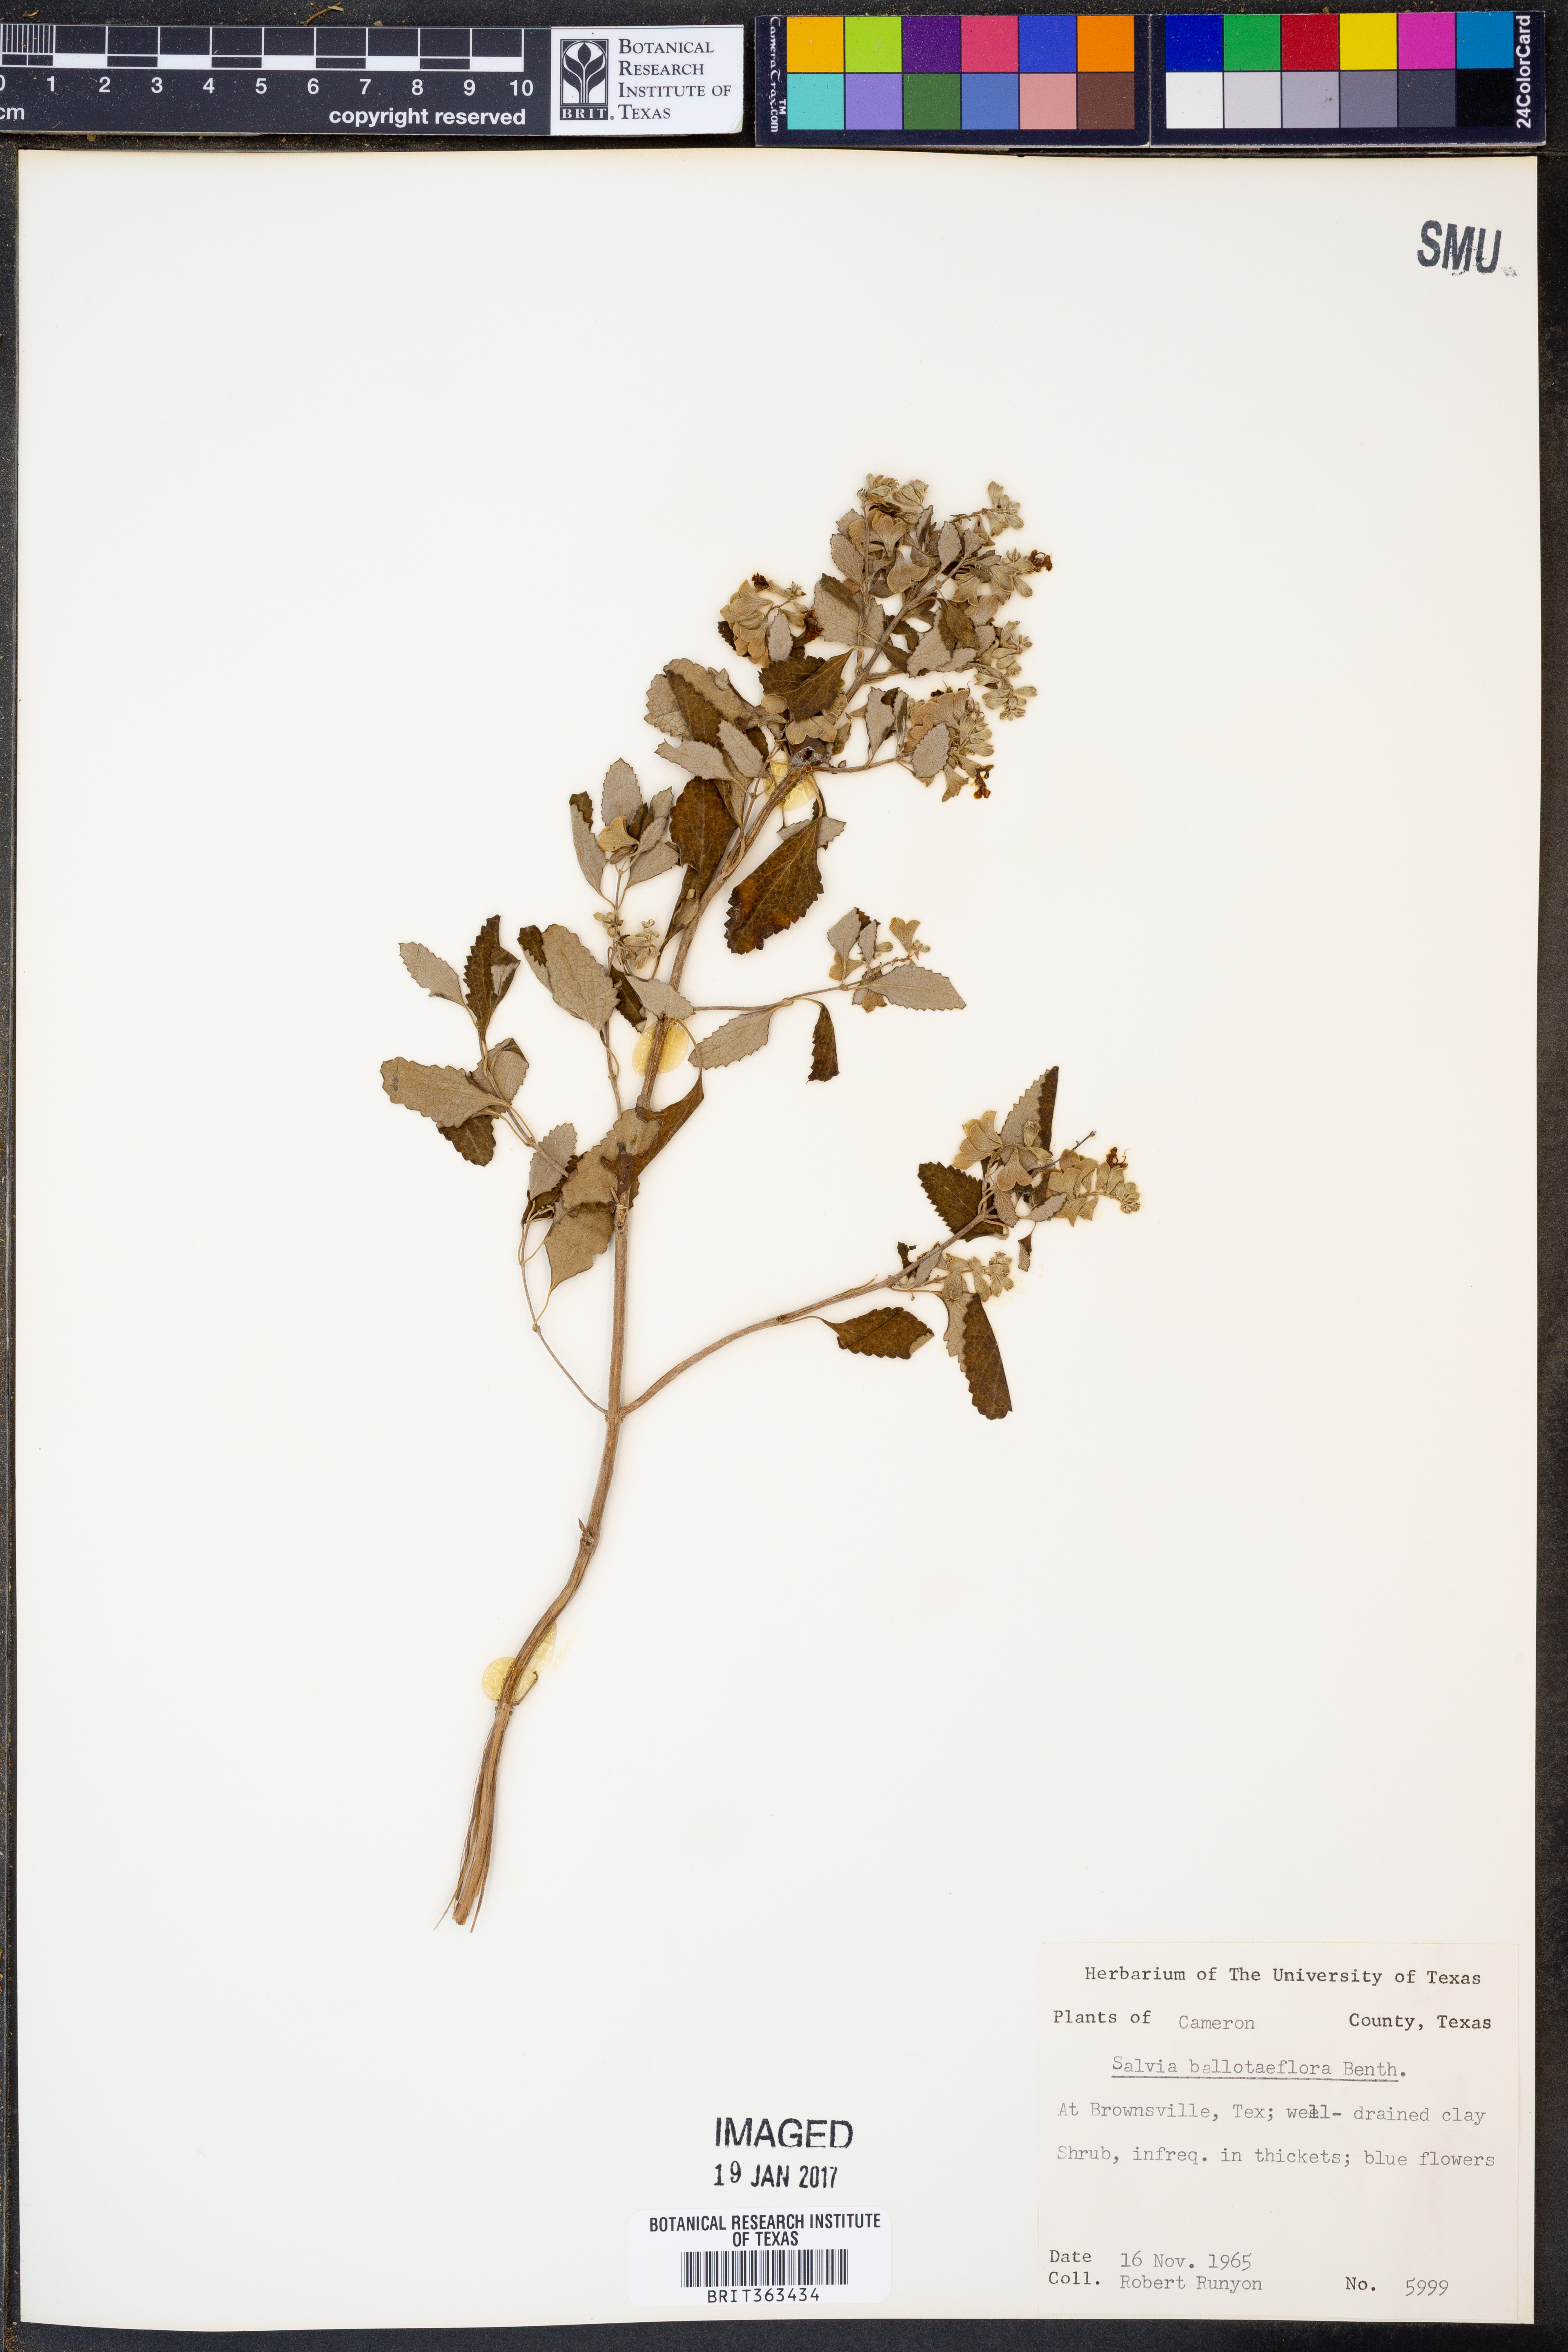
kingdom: Plantae
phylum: Tracheophyta
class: Magnoliopsida
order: Lamiales
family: Lamiaceae
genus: Salvia
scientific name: Salvia ballotiflora
